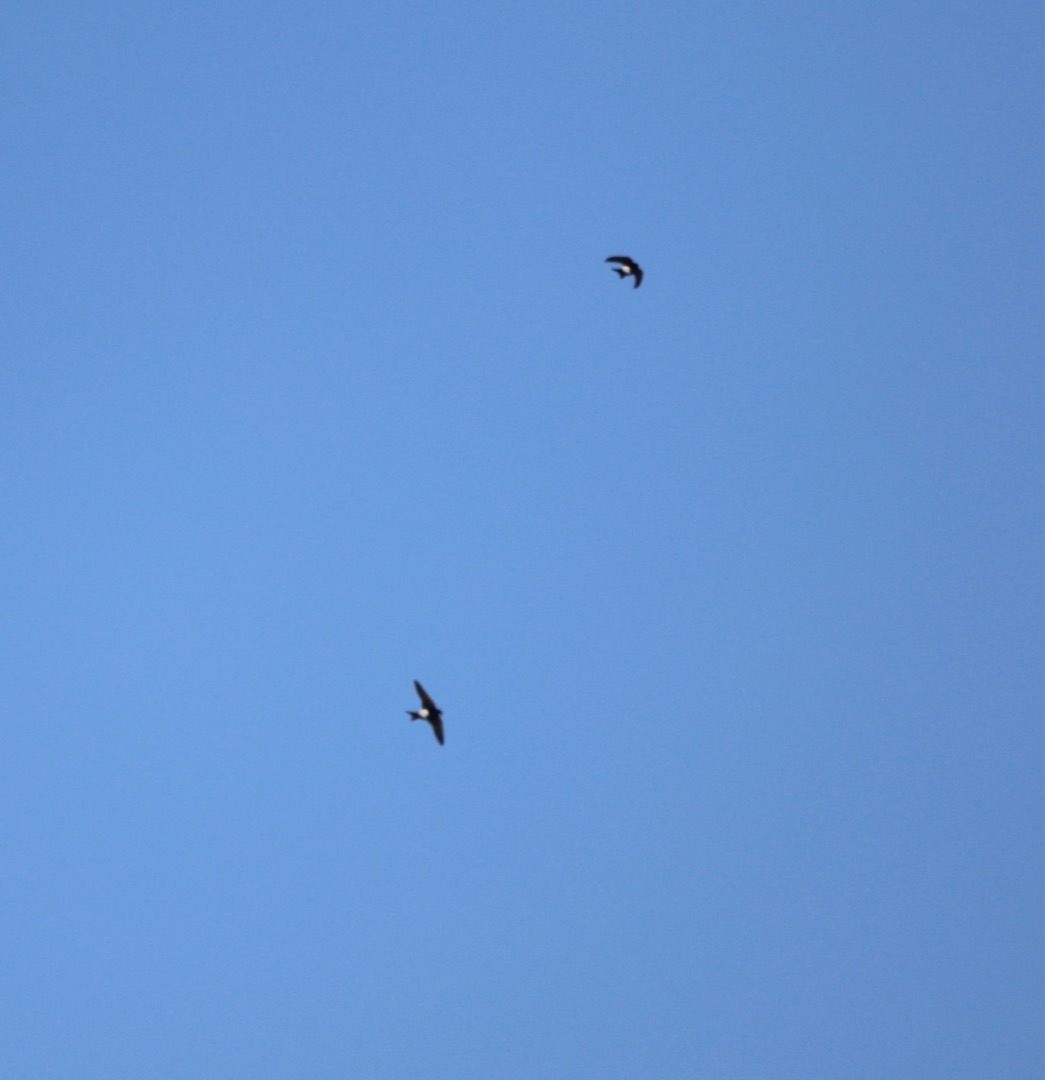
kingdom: Animalia
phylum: Chordata
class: Aves
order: Passeriformes
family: Hirundinidae
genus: Delichon
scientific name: Delichon urbicum
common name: Bysvale
